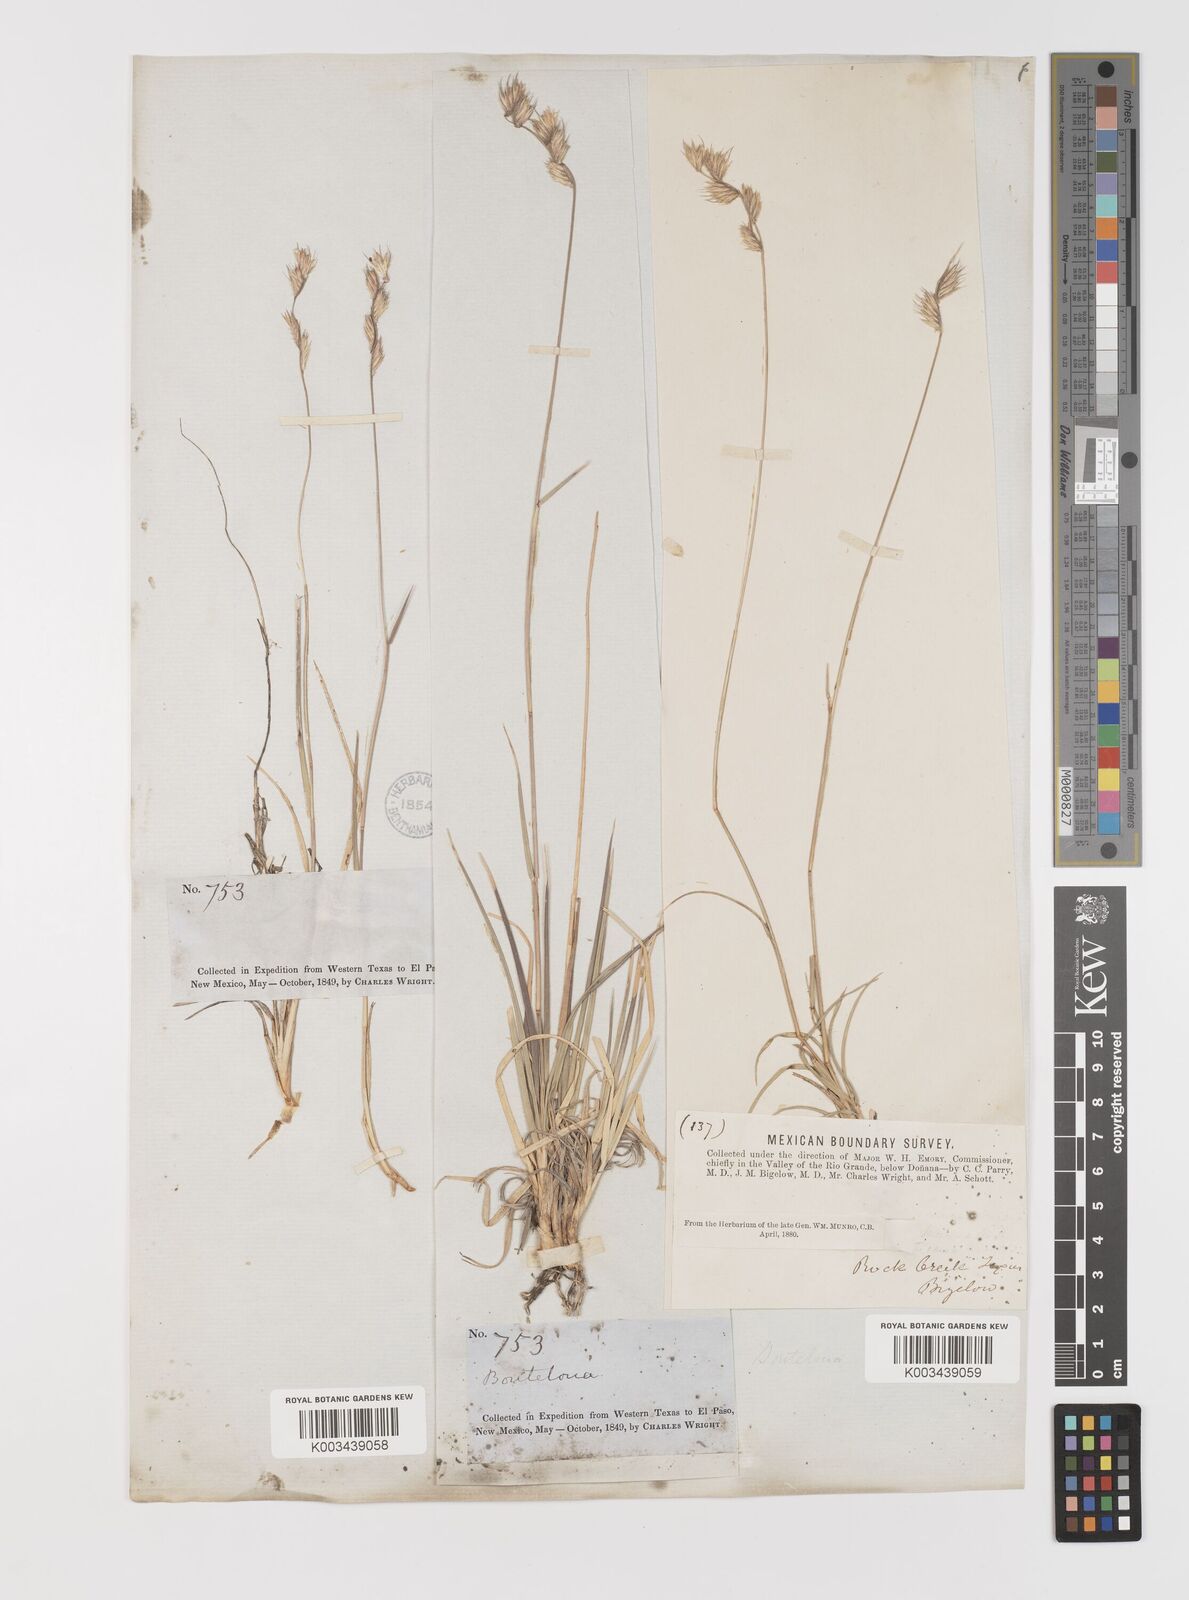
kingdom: Plantae
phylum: Tracheophyta
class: Liliopsida
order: Poales
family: Poaceae
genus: Bouteloua
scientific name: Bouteloua chondrosioides
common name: Sprucetop grama
